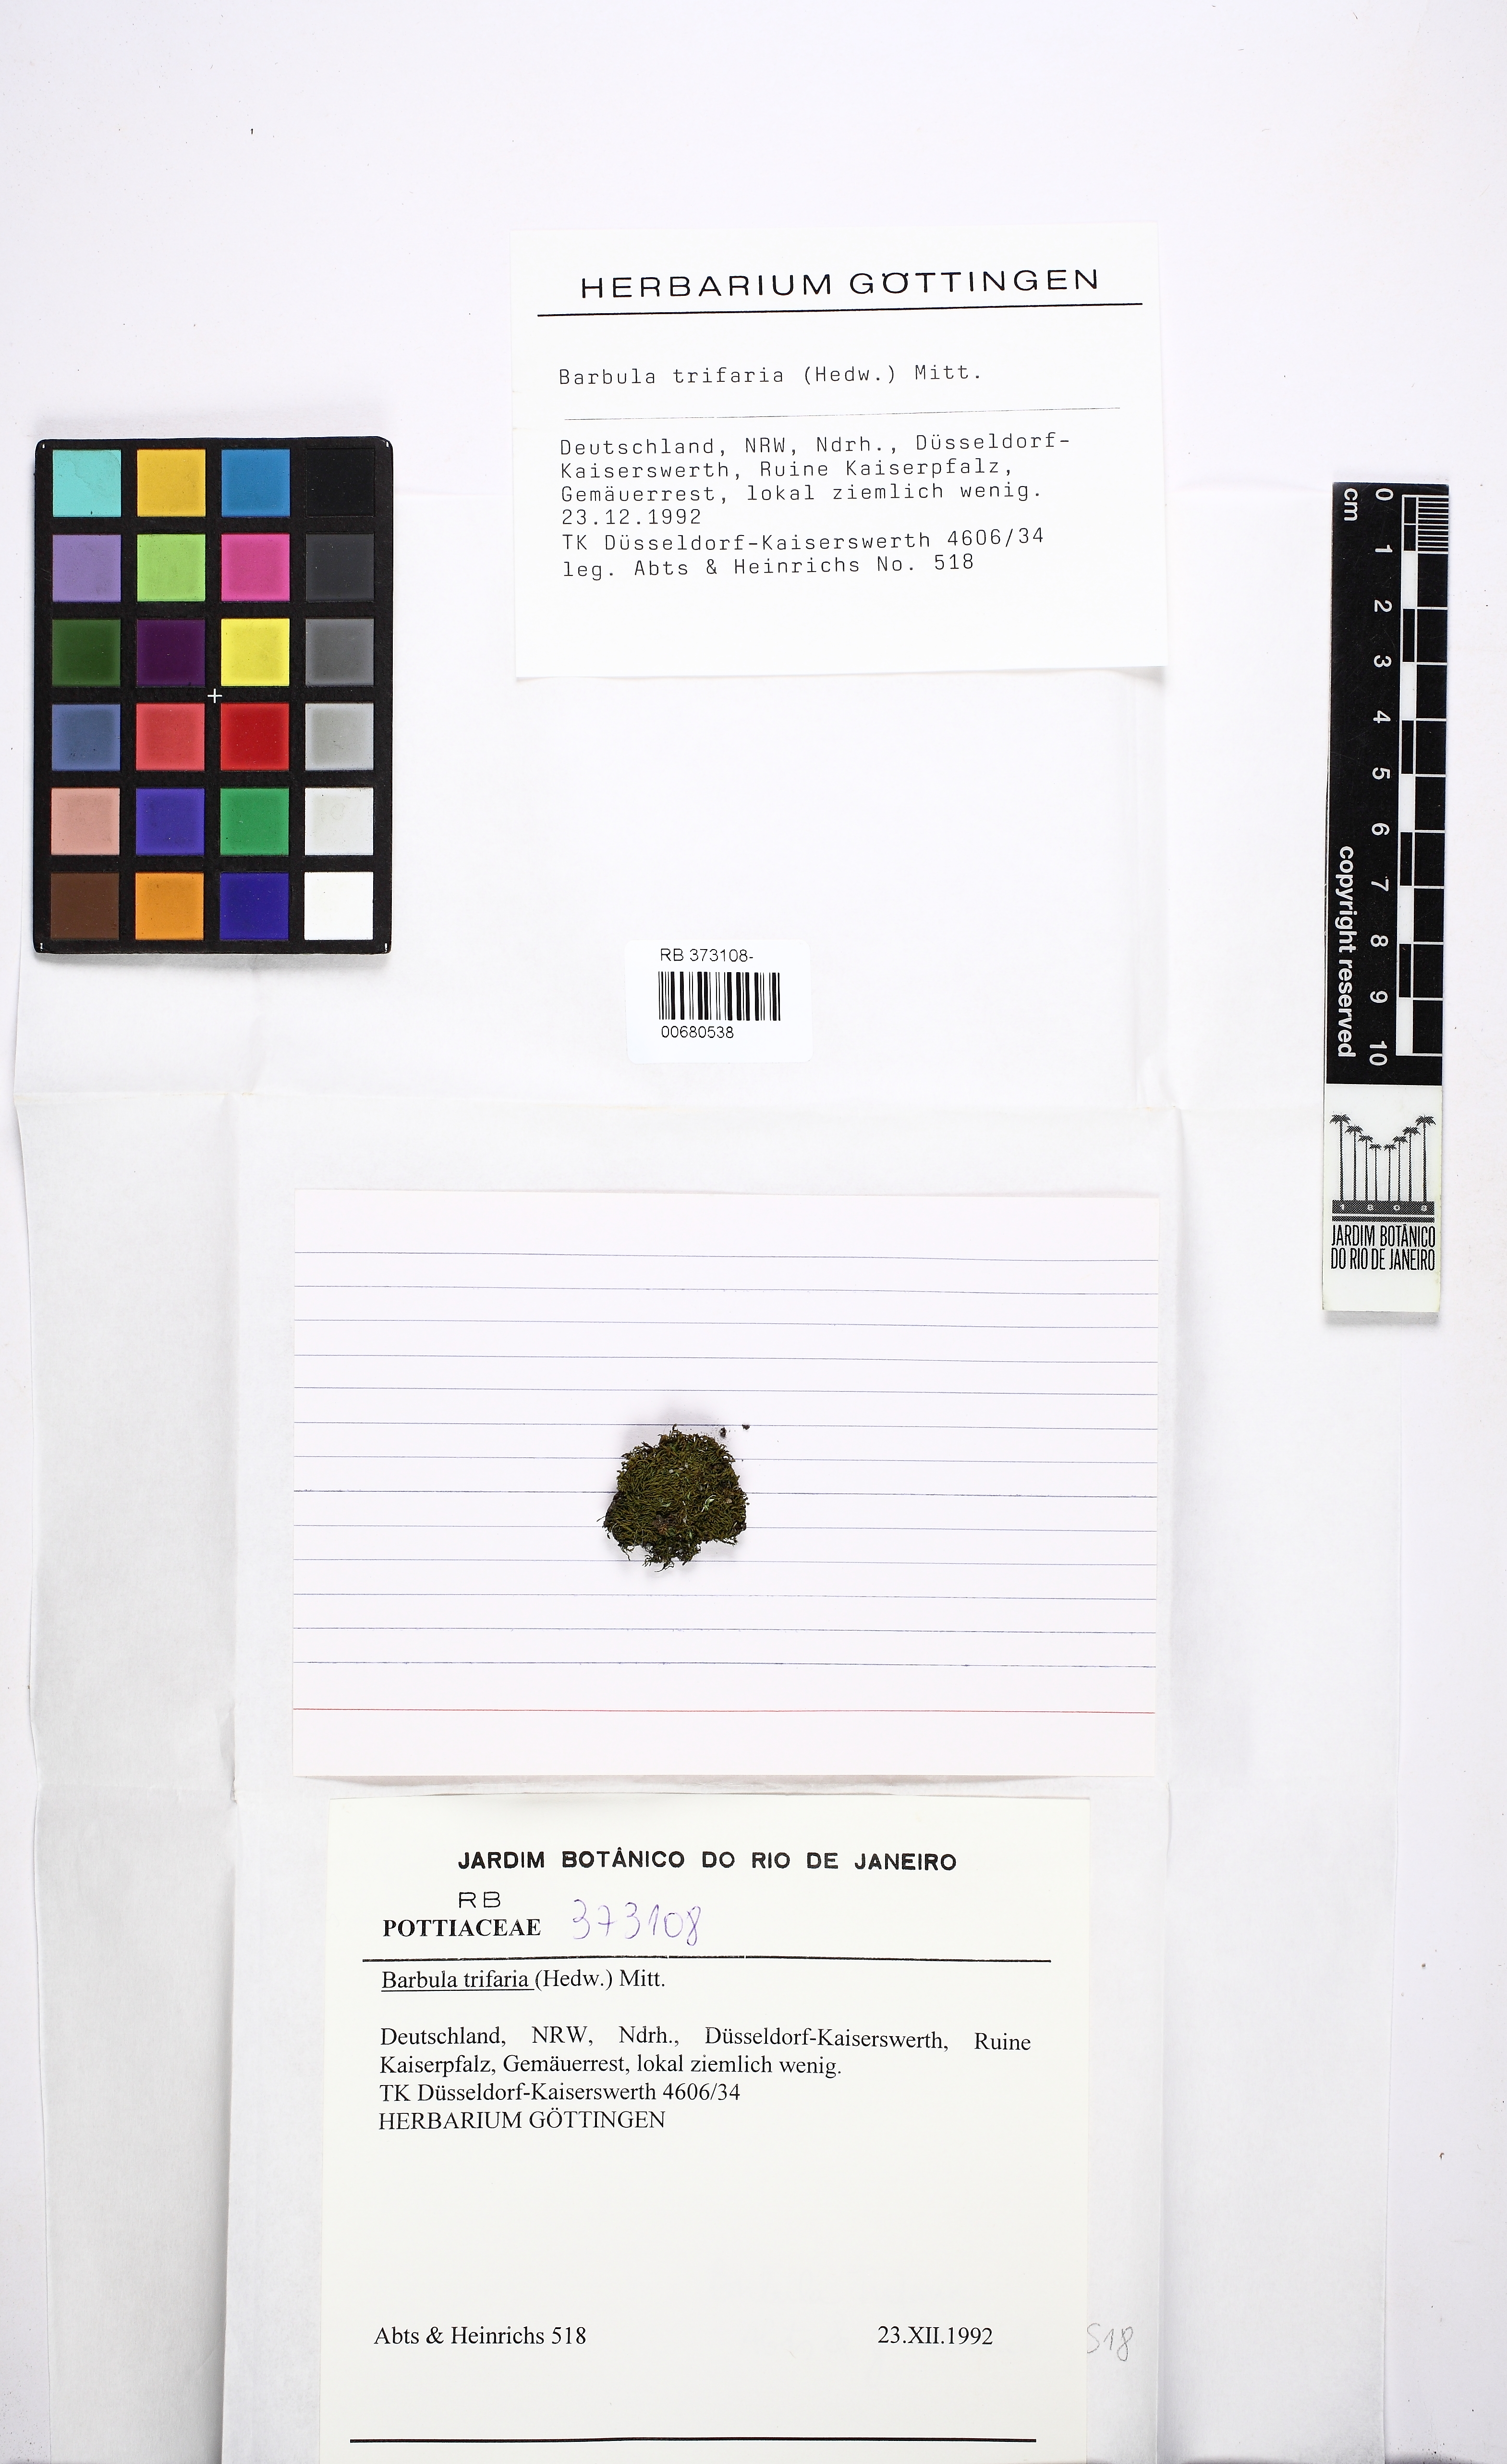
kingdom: Plantae
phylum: Bryophyta
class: Bryopsida
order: Grimmiales
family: Saelaniaceae
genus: Saelania
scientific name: Saelania glaucescens
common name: Blue dew-moss
